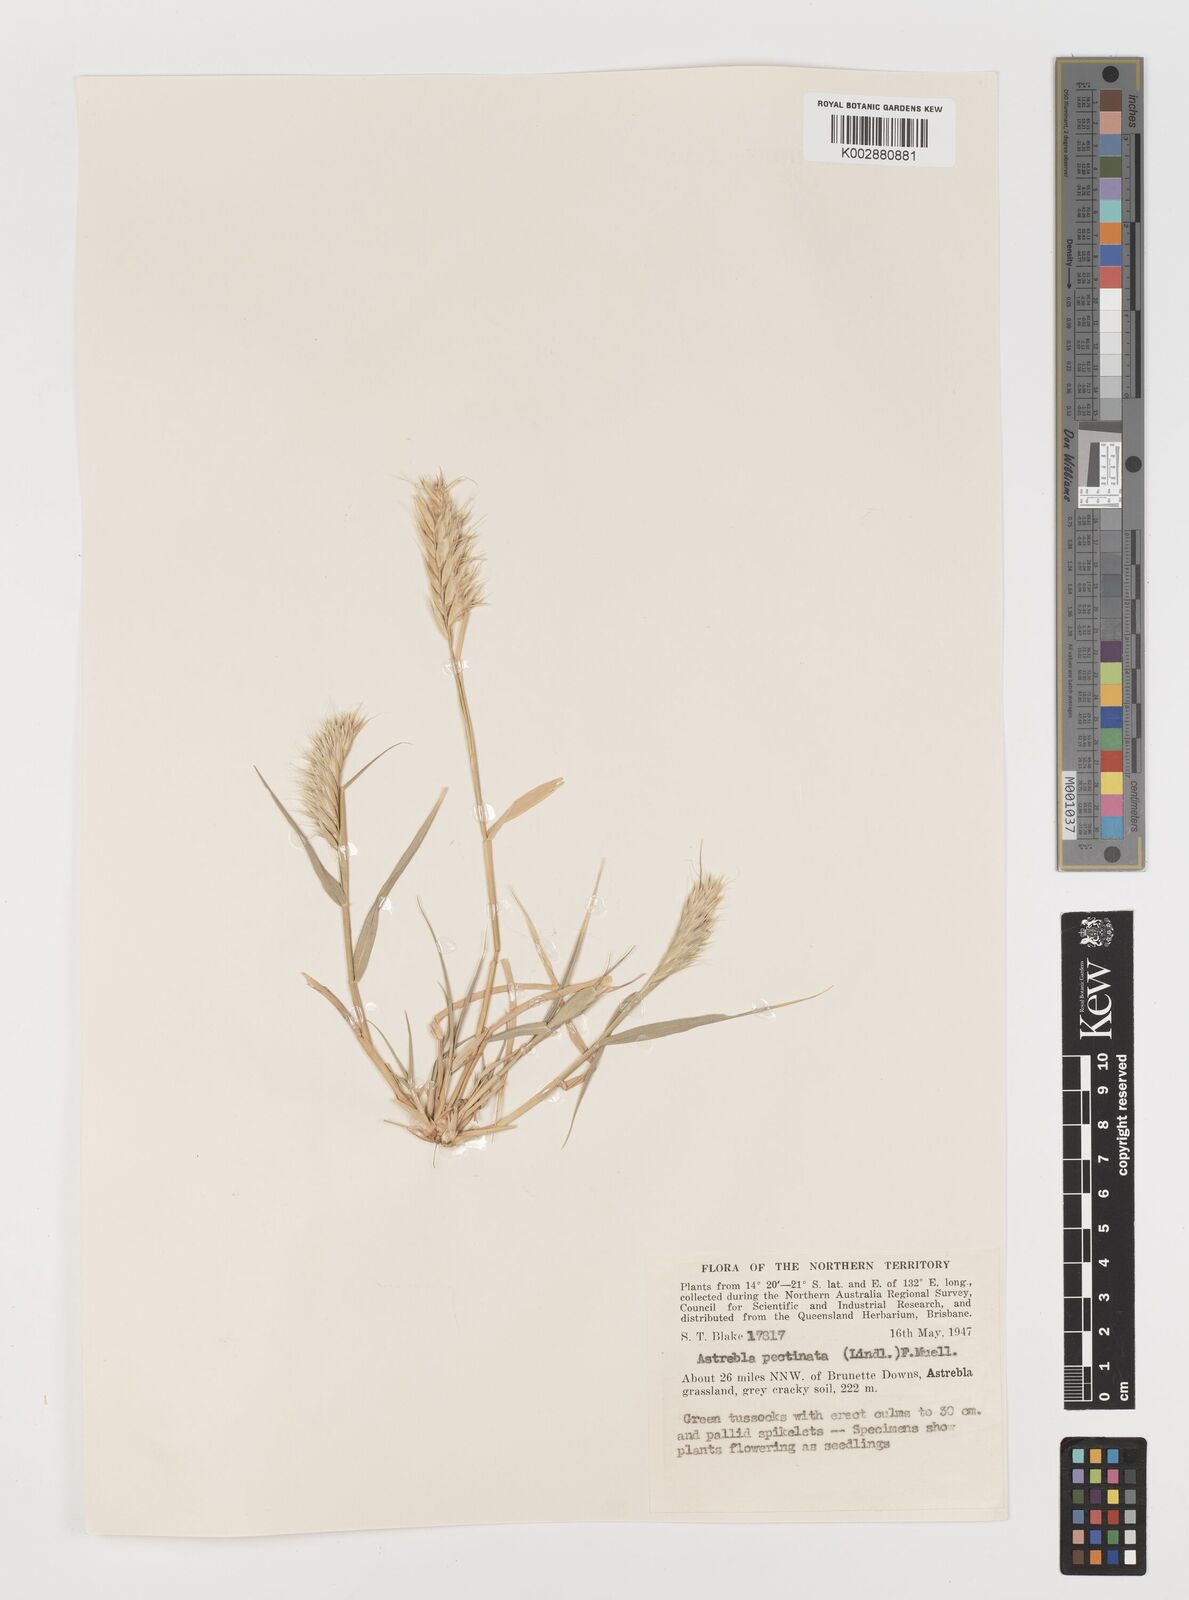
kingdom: Plantae
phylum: Tracheophyta
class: Liliopsida
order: Poales
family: Poaceae
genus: Astrebla
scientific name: Astrebla pectinata
